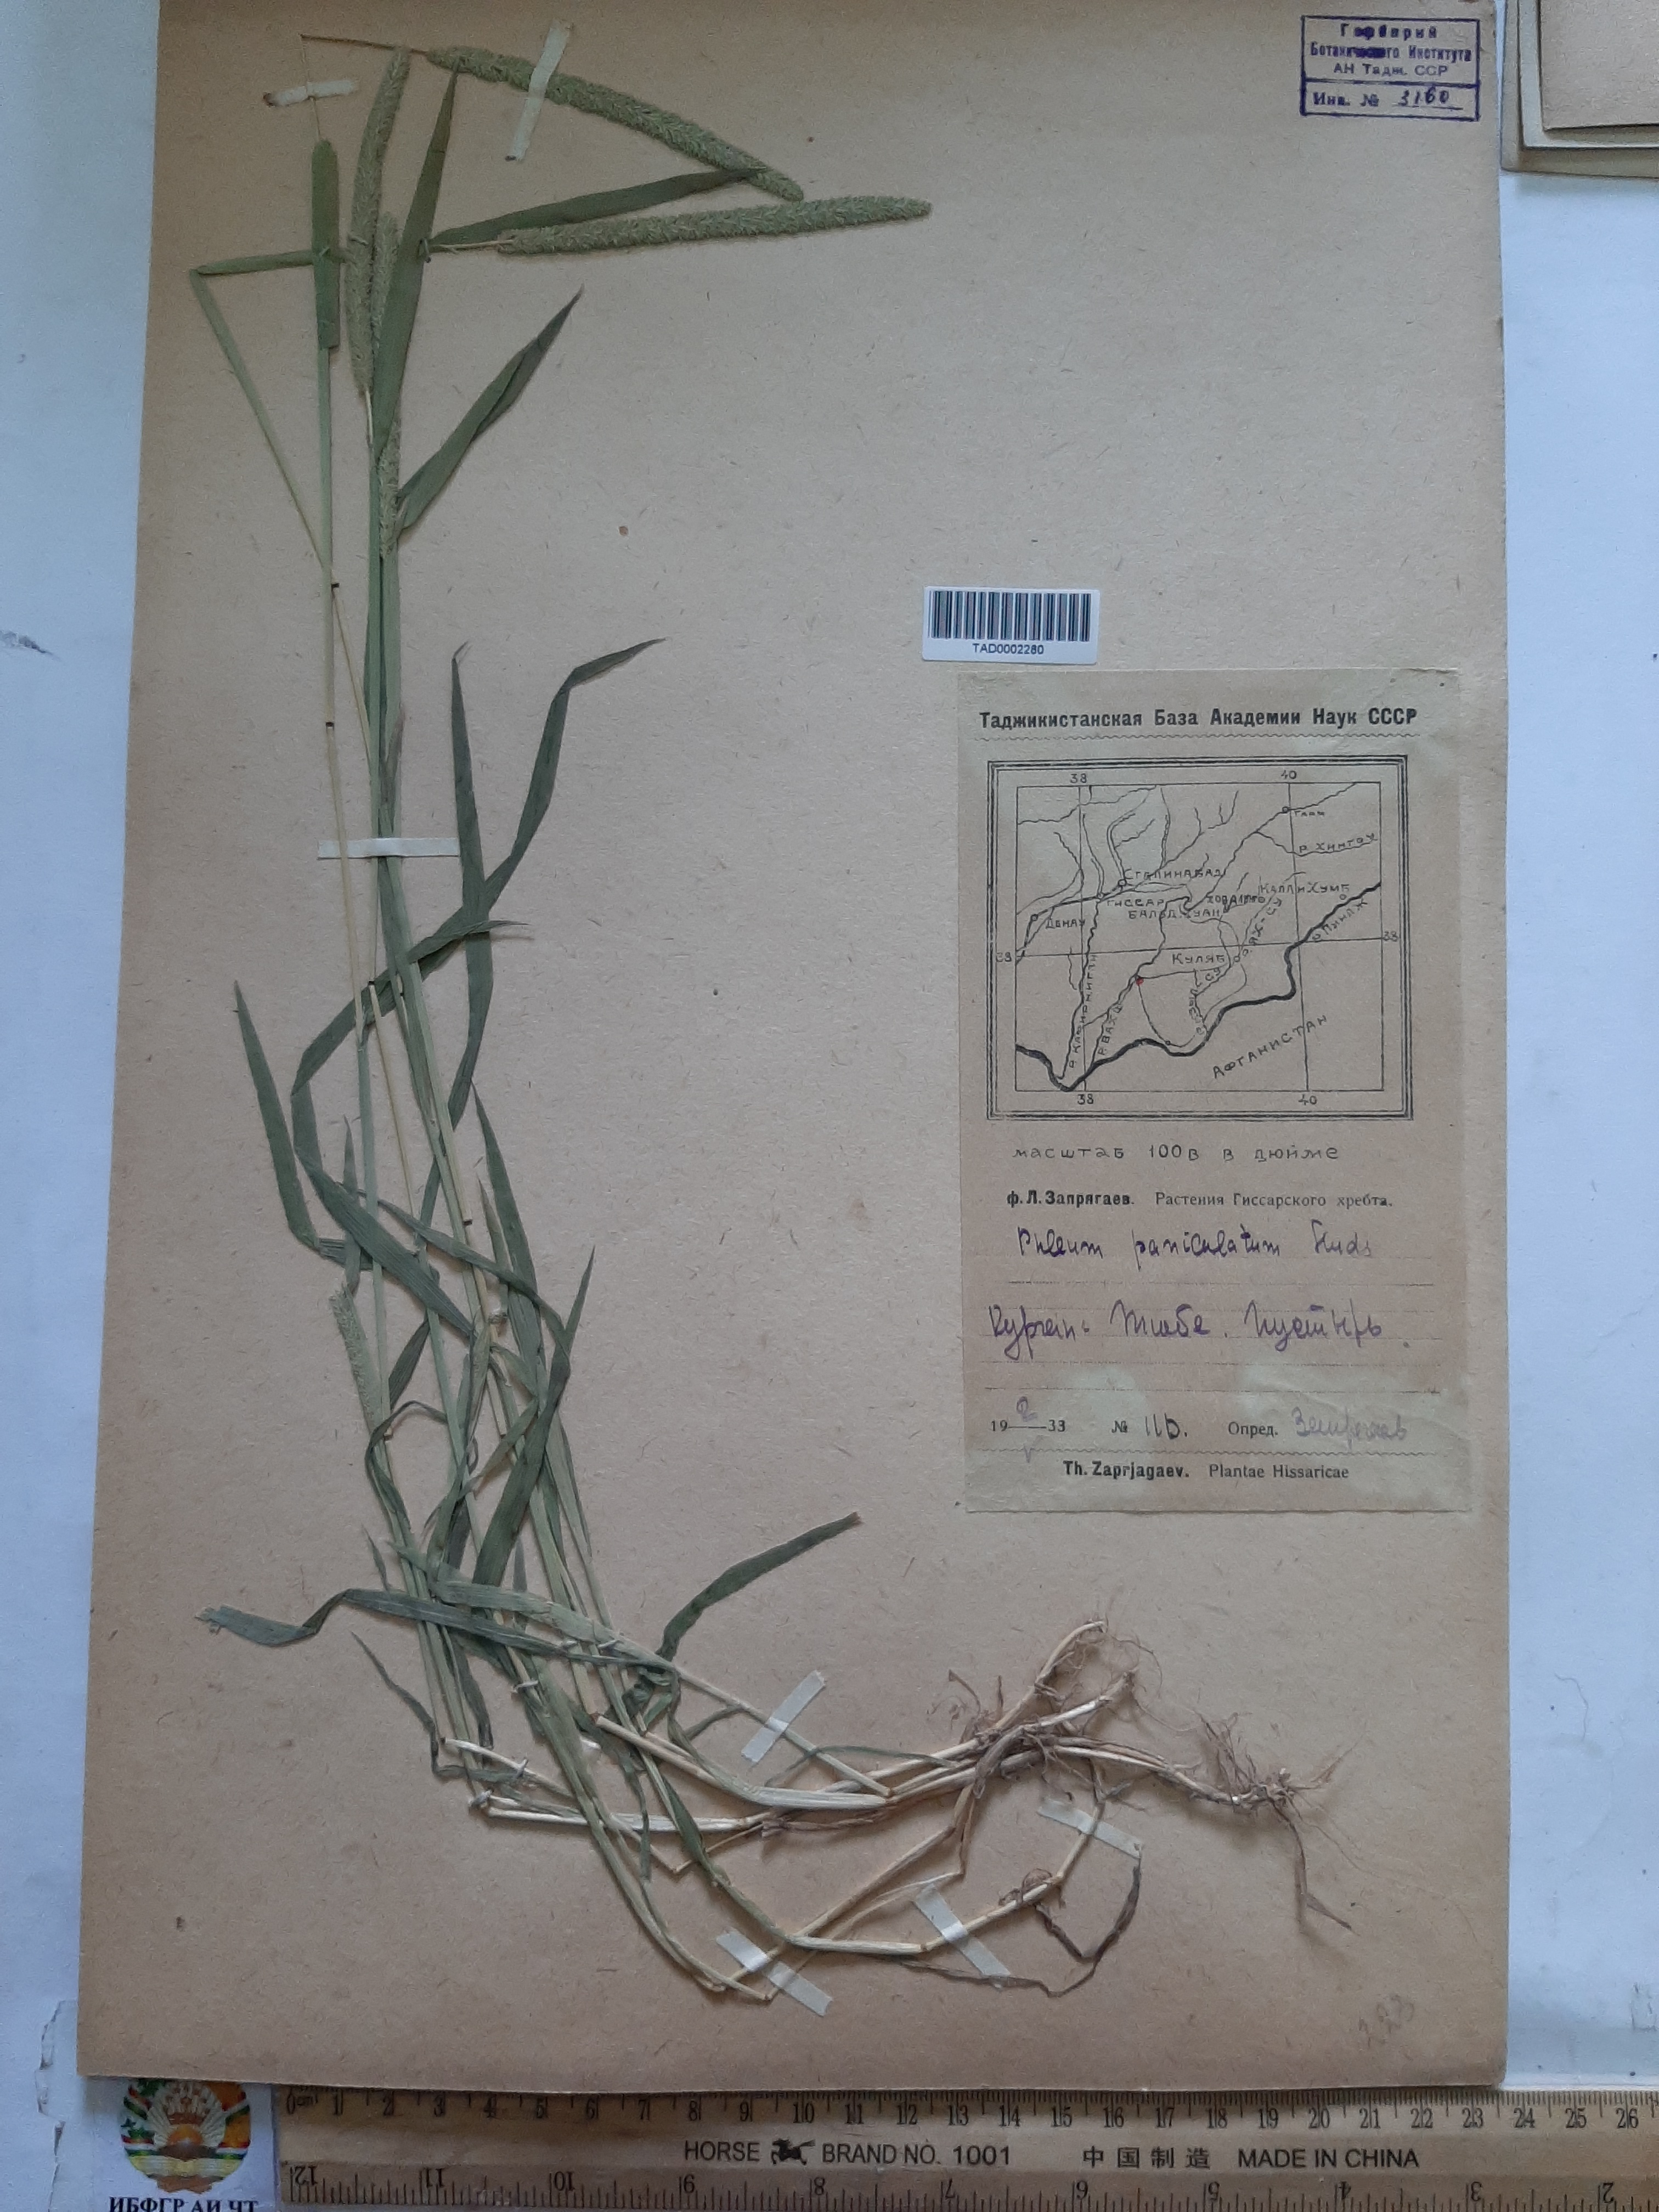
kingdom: Plantae
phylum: Tracheophyta
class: Liliopsida
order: Poales
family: Poaceae
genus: Phleum
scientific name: Phleum paniculatum
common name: British timothy
